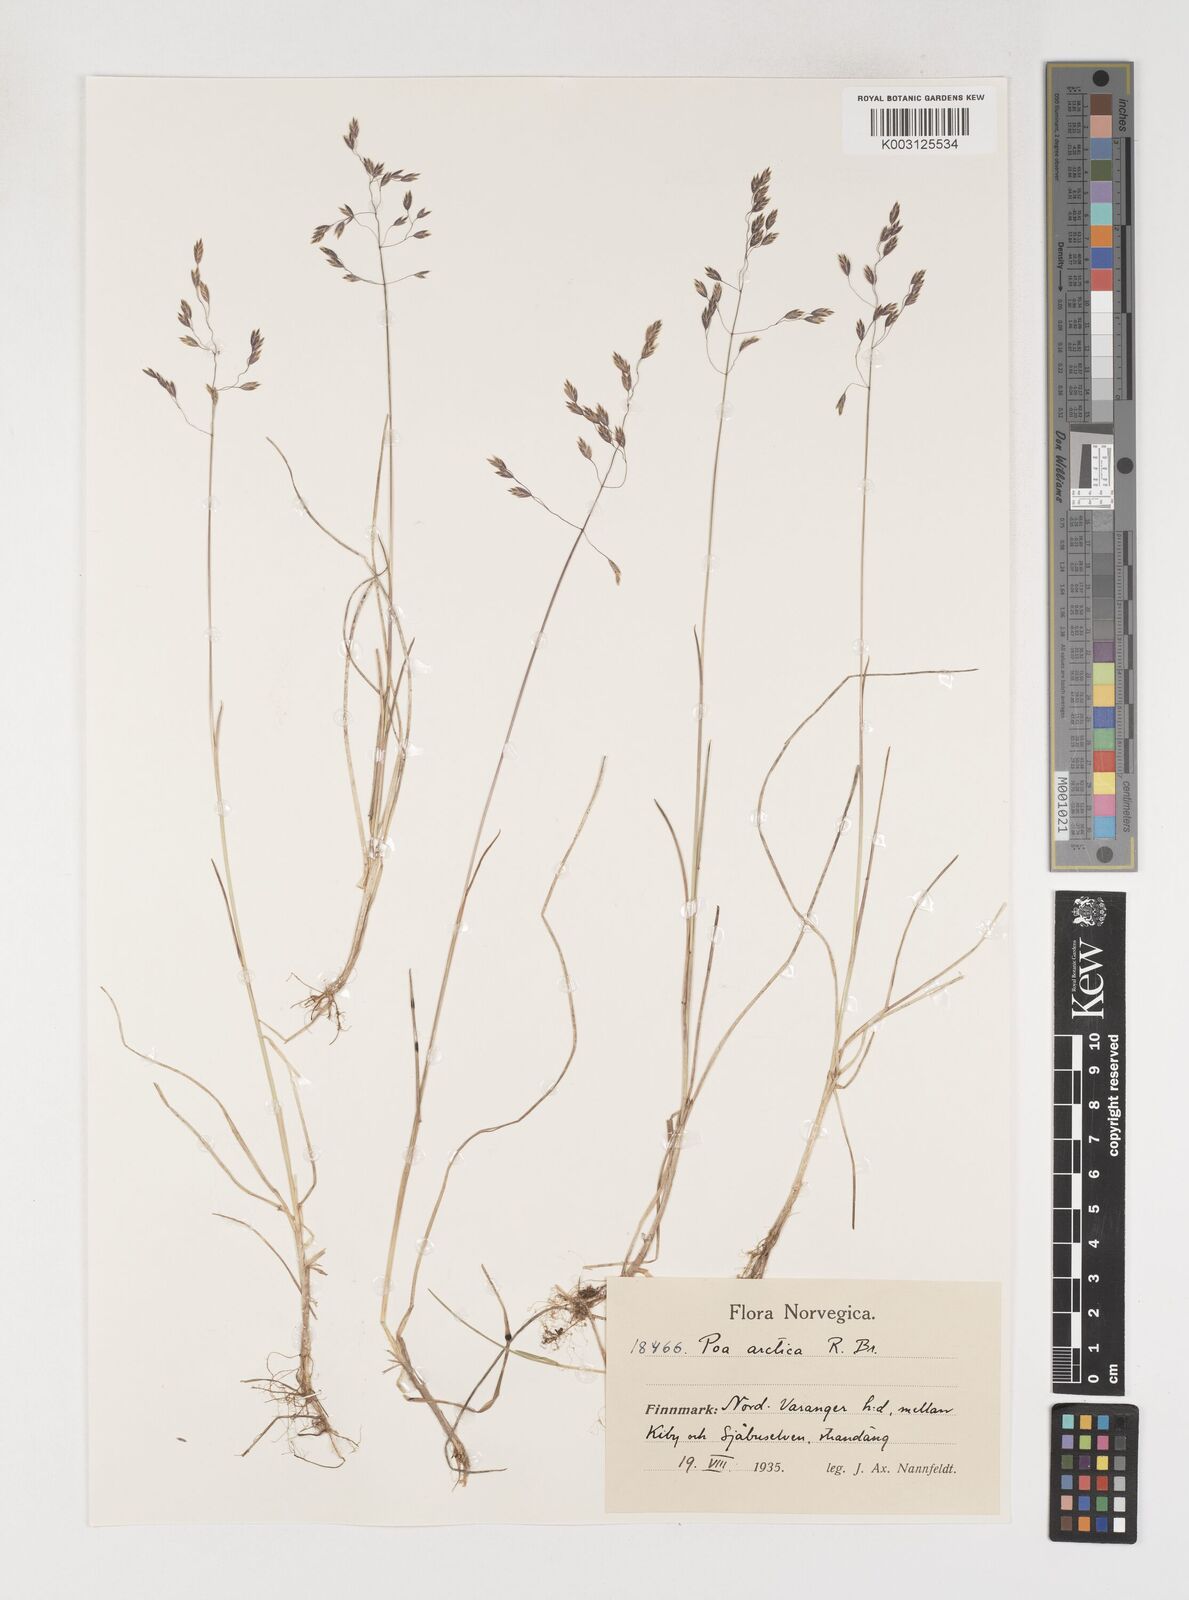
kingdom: Plantae
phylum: Tracheophyta
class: Liliopsida
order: Poales
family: Poaceae
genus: Poa
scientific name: Poa arctica
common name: Arctic bluegrass
